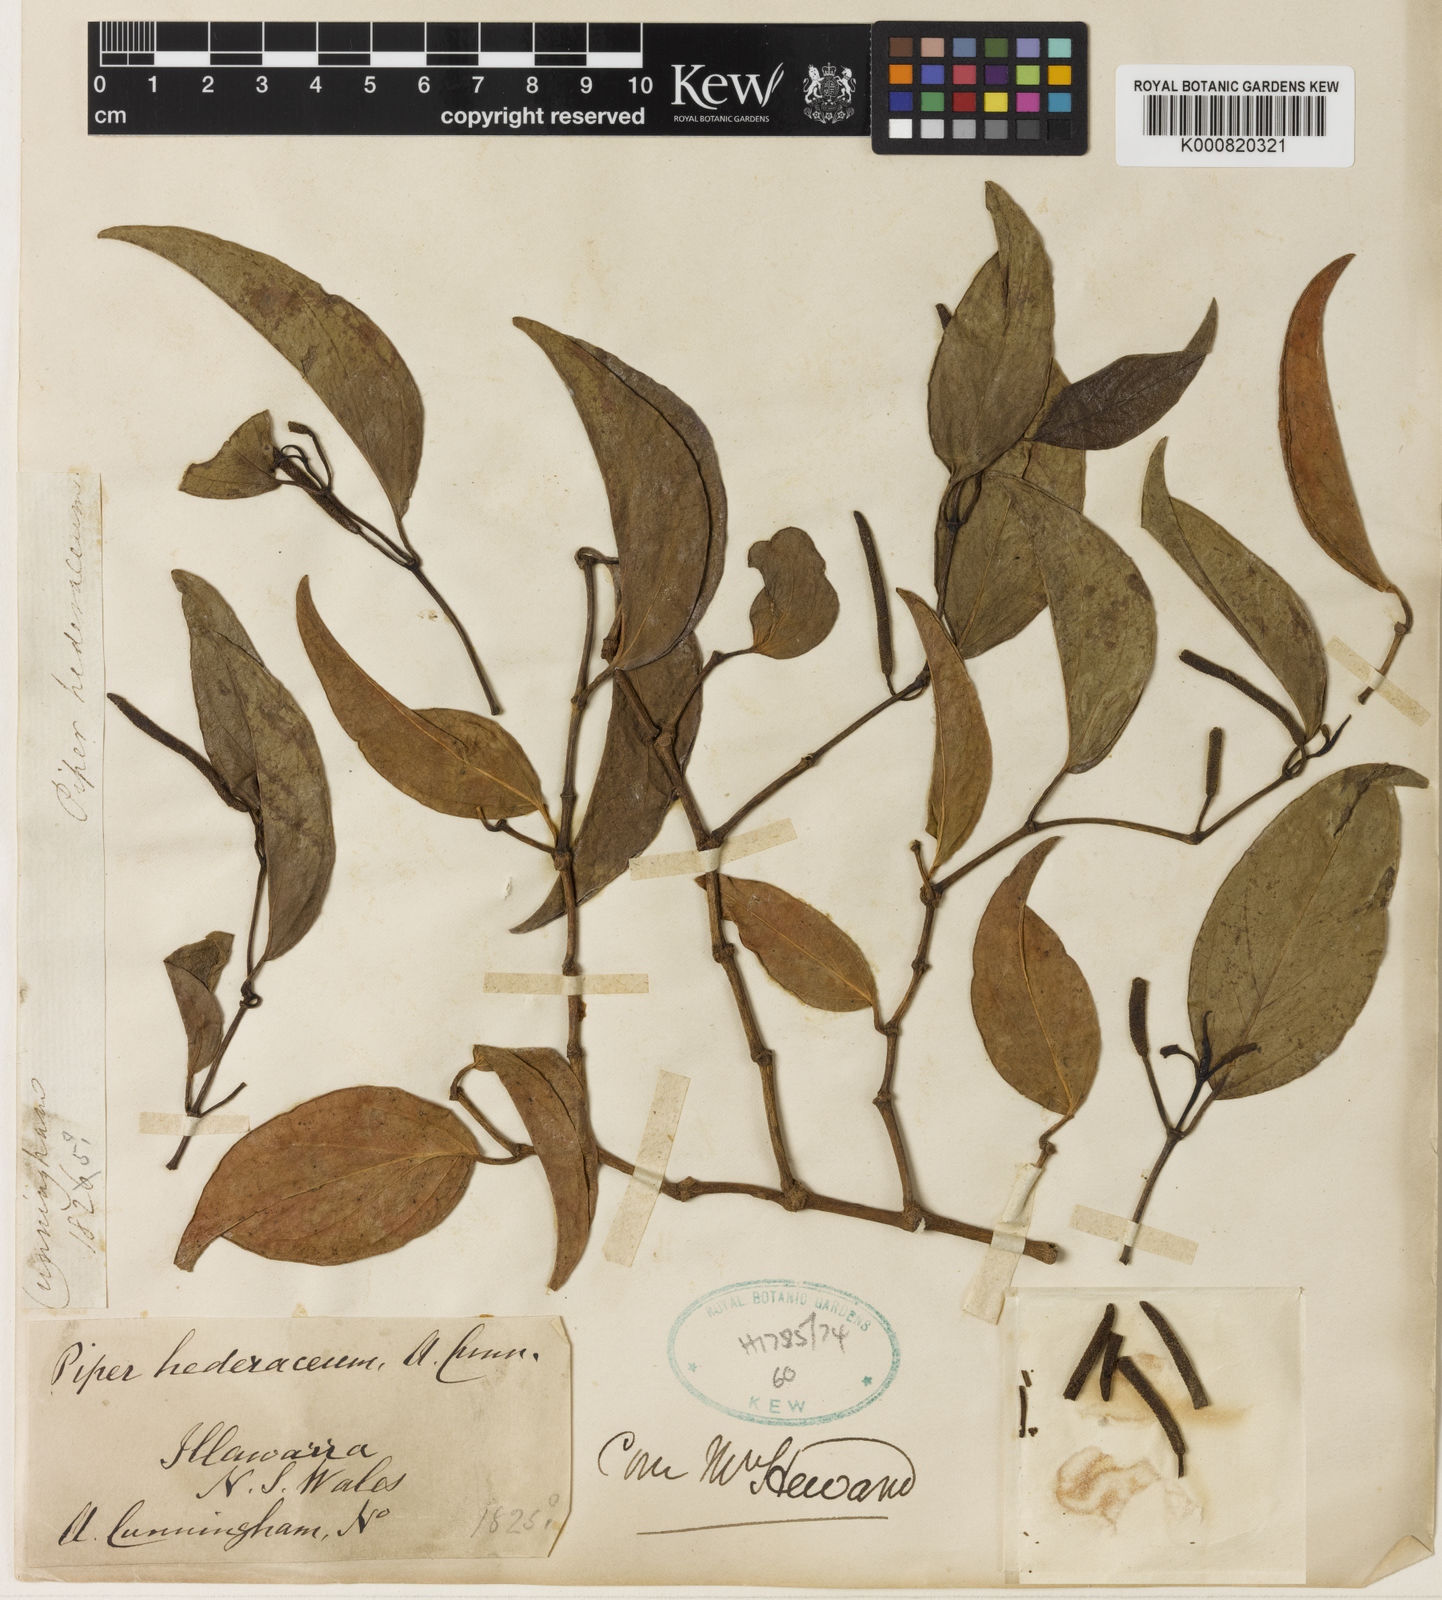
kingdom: Plantae
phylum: Tracheophyta
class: Magnoliopsida
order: Piperales
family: Piperaceae
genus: Piper
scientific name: Piper hederaceum
